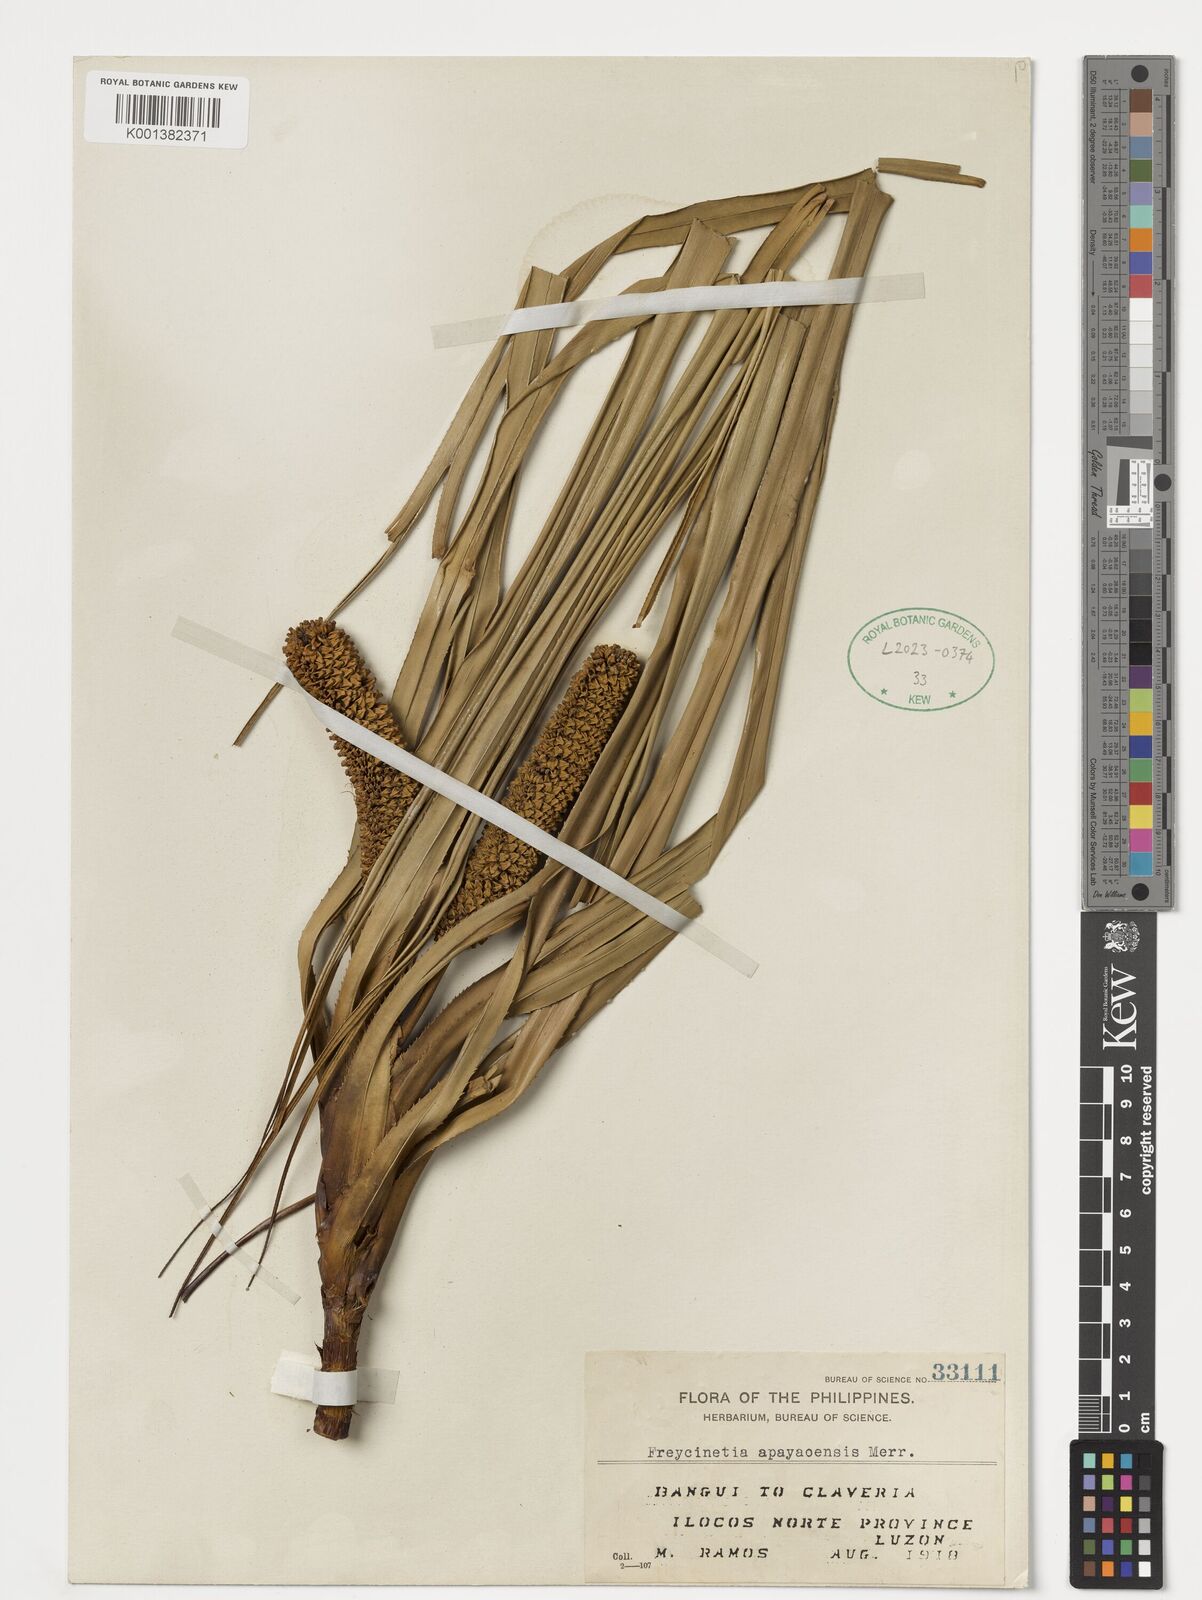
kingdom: Plantae
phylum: Tracheophyta
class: Liliopsida
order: Pandanales
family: Pandanaceae
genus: Freycinetia
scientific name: Freycinetia apayaoensis
